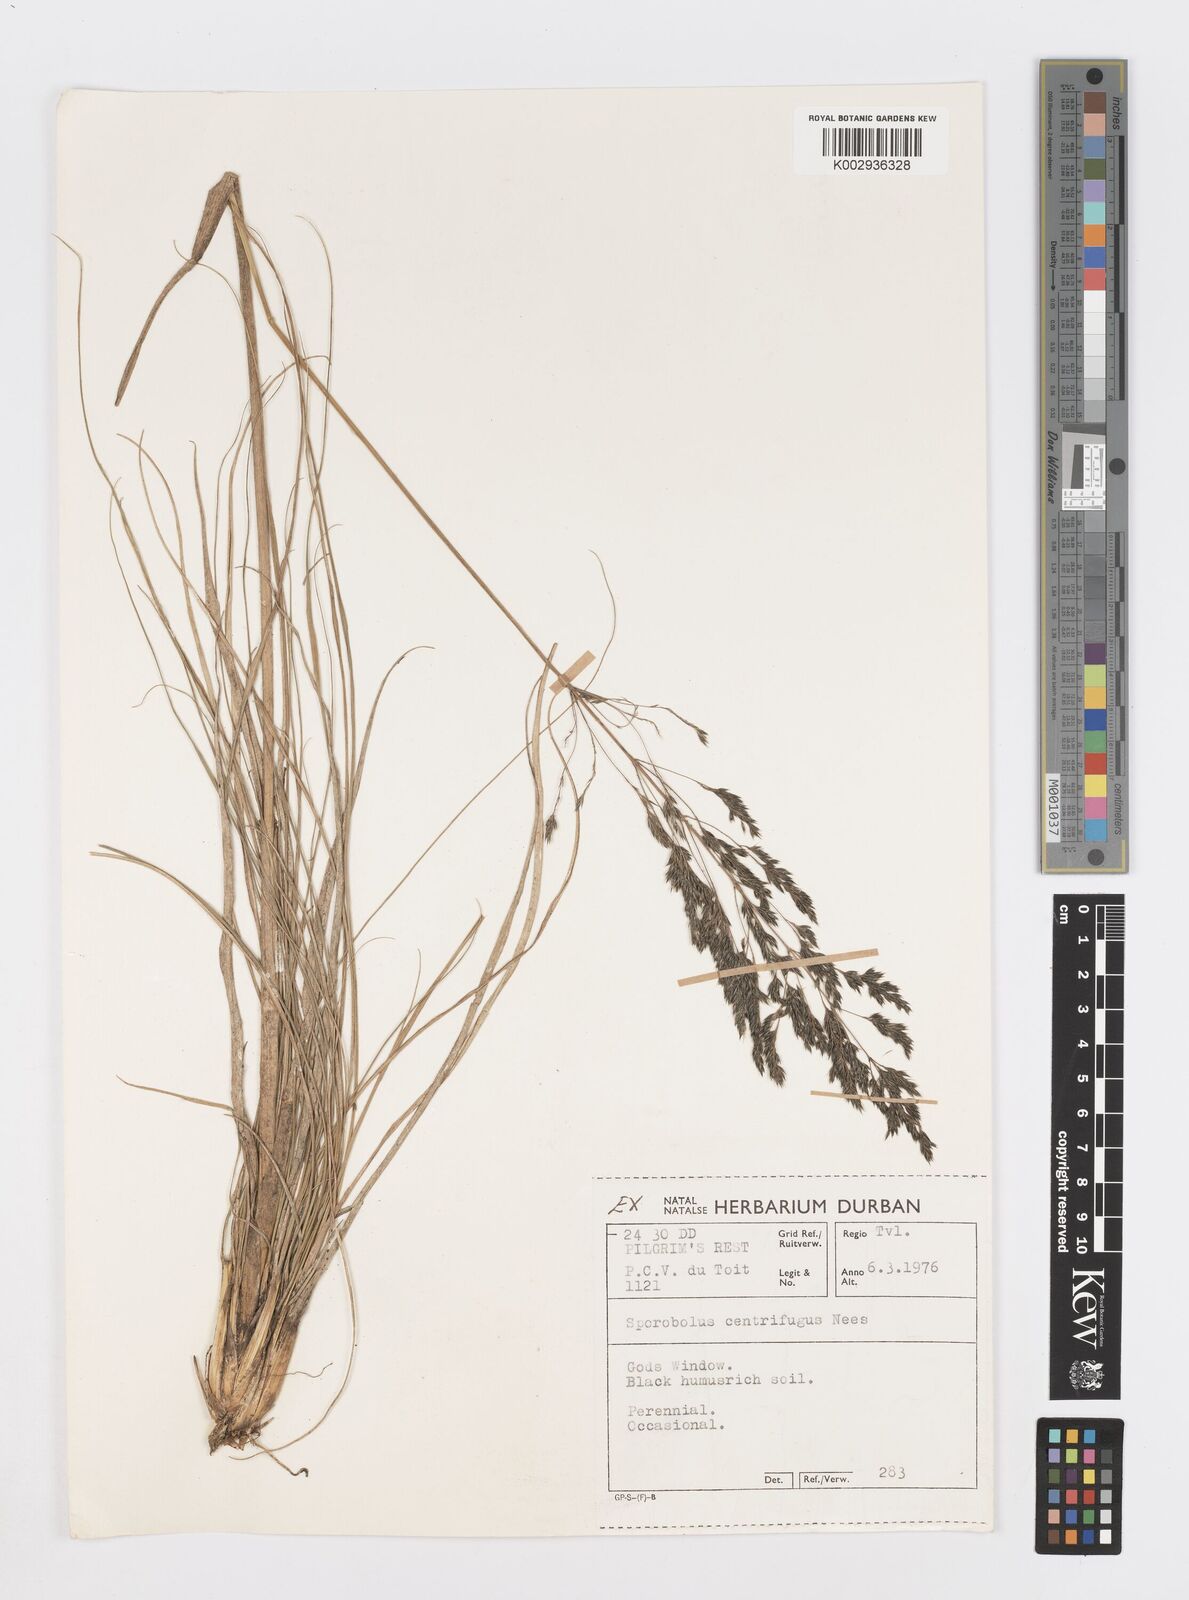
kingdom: Plantae
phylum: Tracheophyta
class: Liliopsida
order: Poales
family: Poaceae
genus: Sporobolus
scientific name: Sporobolus centrifugus
